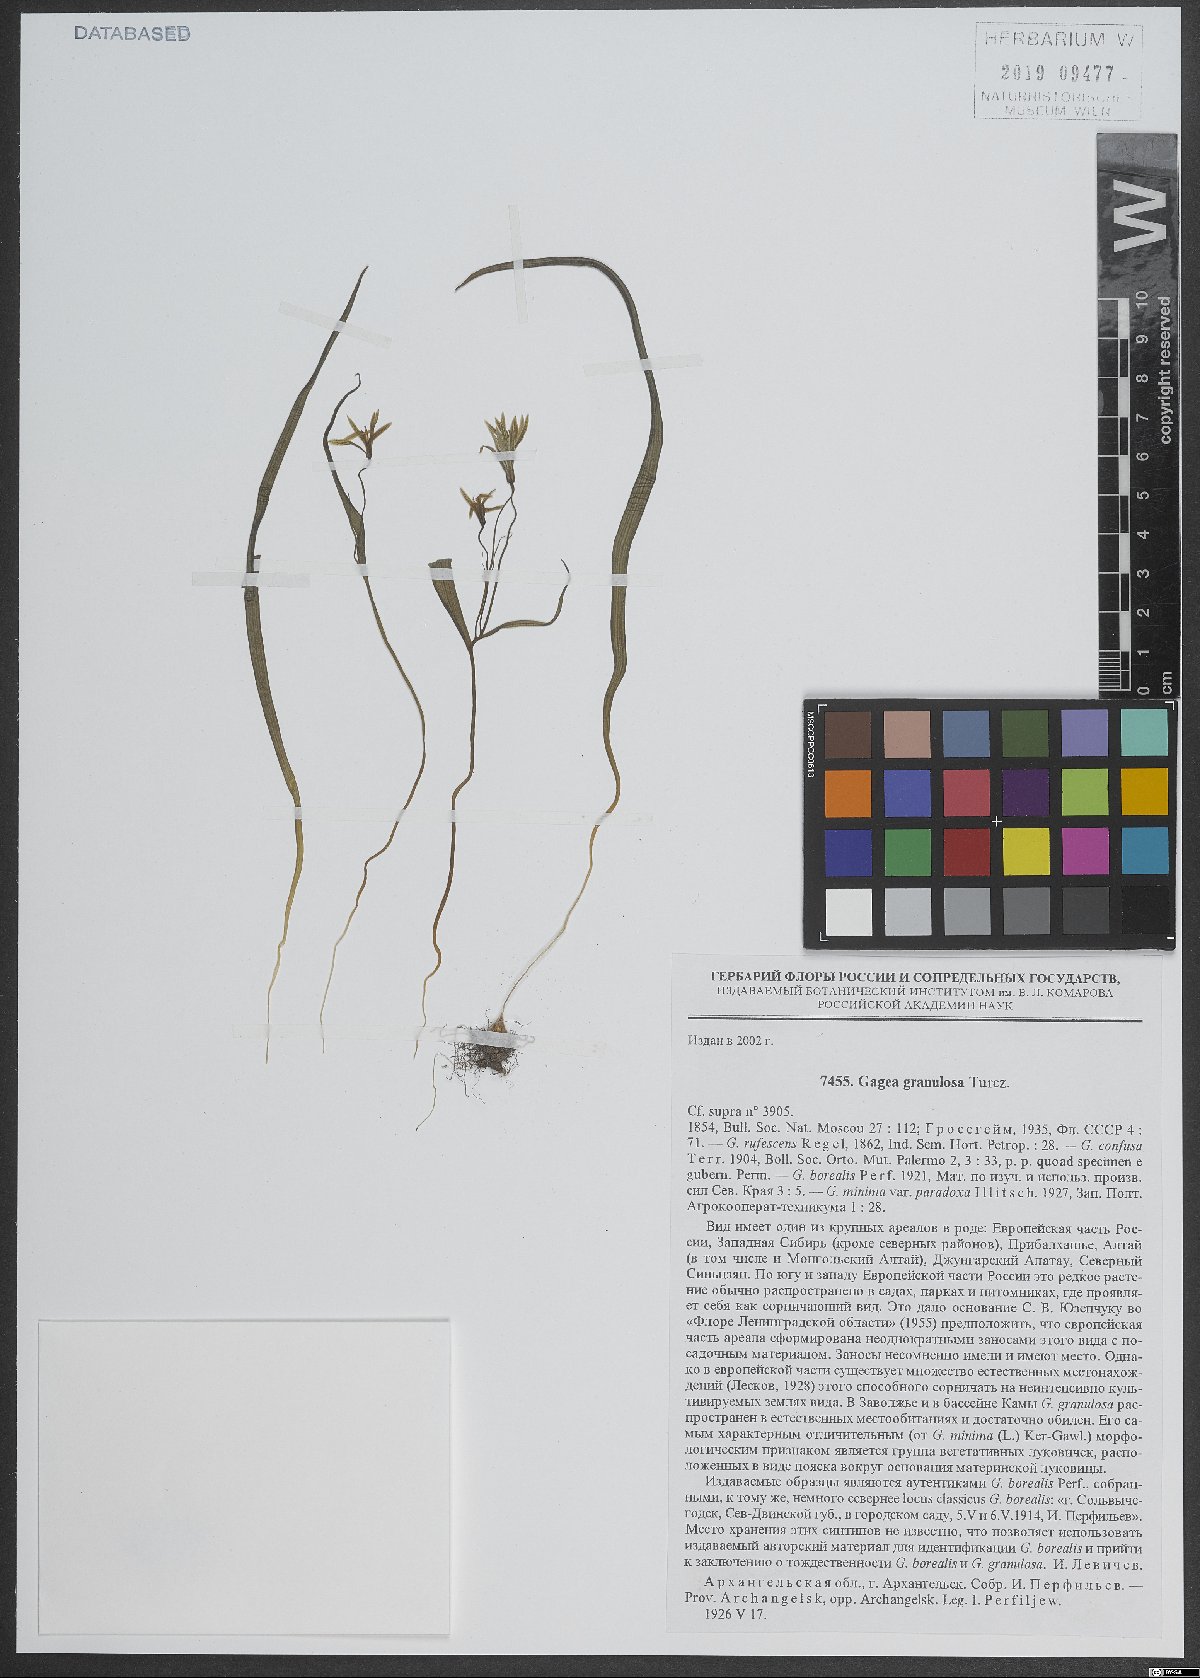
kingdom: Plantae
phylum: Tracheophyta
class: Liliopsida
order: Liliales
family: Liliaceae
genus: Gagea
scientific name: Gagea granulosa
